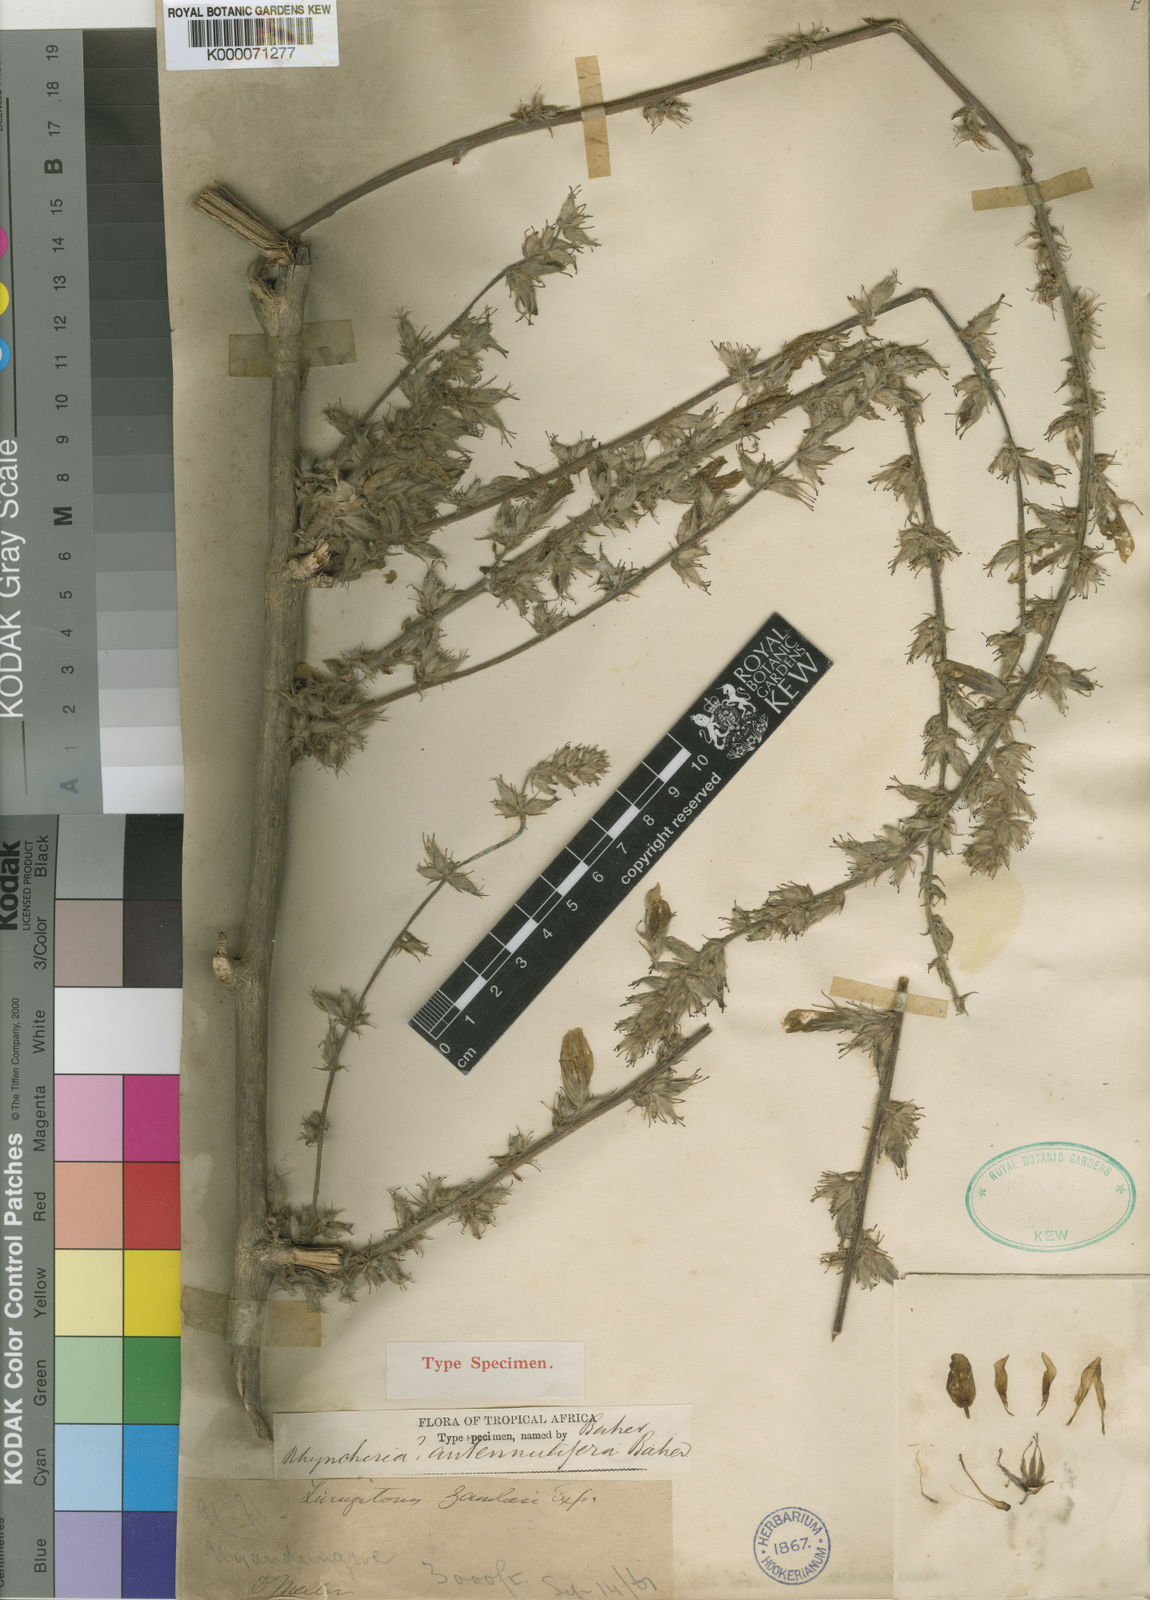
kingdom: Plantae
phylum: Tracheophyta
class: Magnoliopsida
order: Fabales
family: Fabaceae
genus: Eminia
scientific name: Eminia antennulifera
